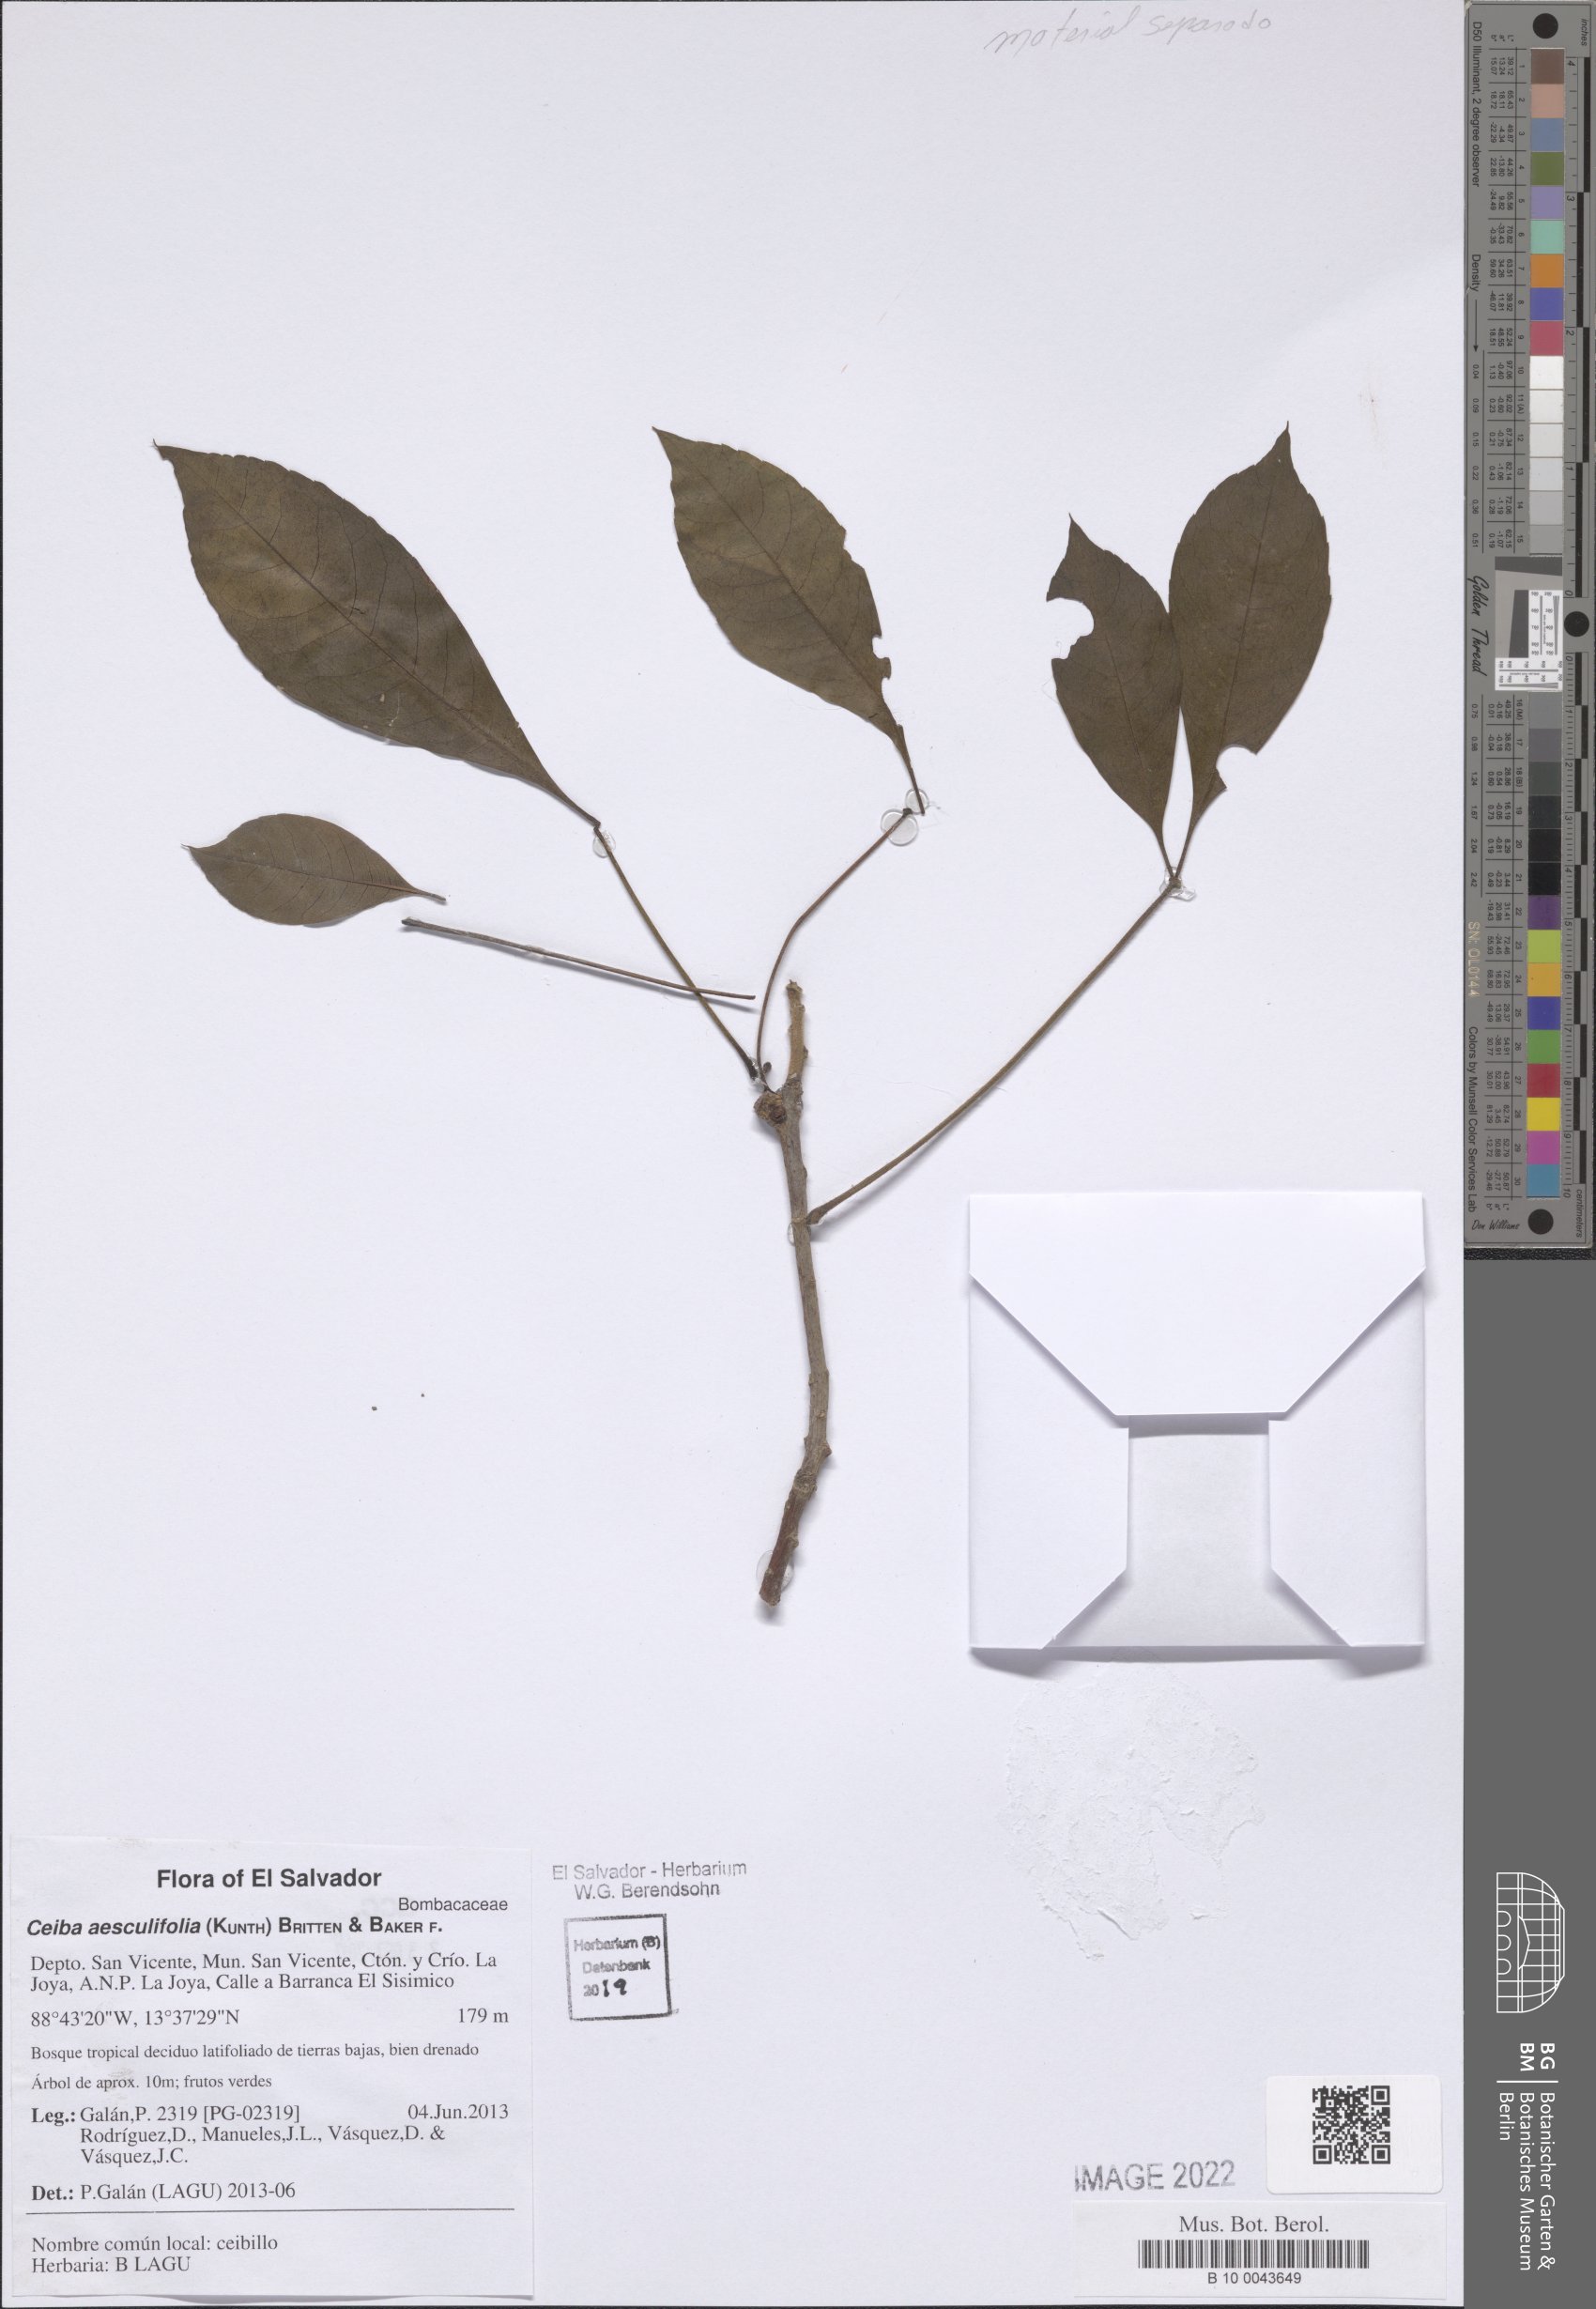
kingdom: Plantae
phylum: Tracheophyta
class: Magnoliopsida
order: Malvales
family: Malvaceae
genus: Ceiba
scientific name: Ceiba aesculifolia
